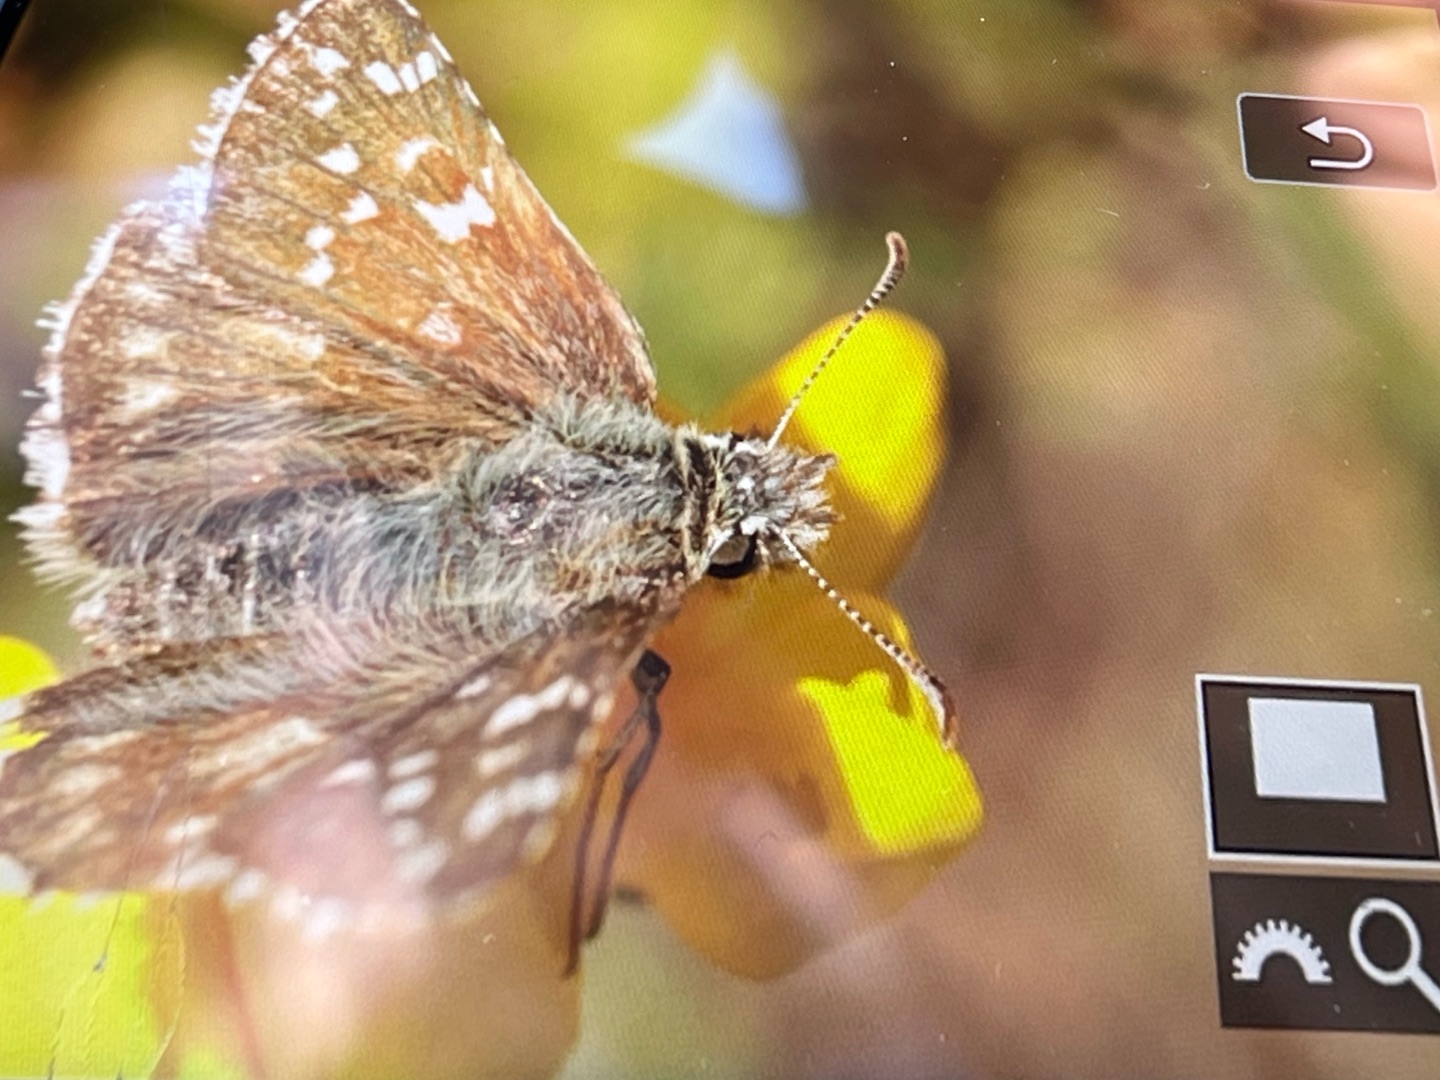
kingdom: Animalia
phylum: Arthropoda
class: Insecta
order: Lepidoptera
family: Hesperiidae
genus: Pyrgus
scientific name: Pyrgus armoricanus
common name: Fransk bredpande
